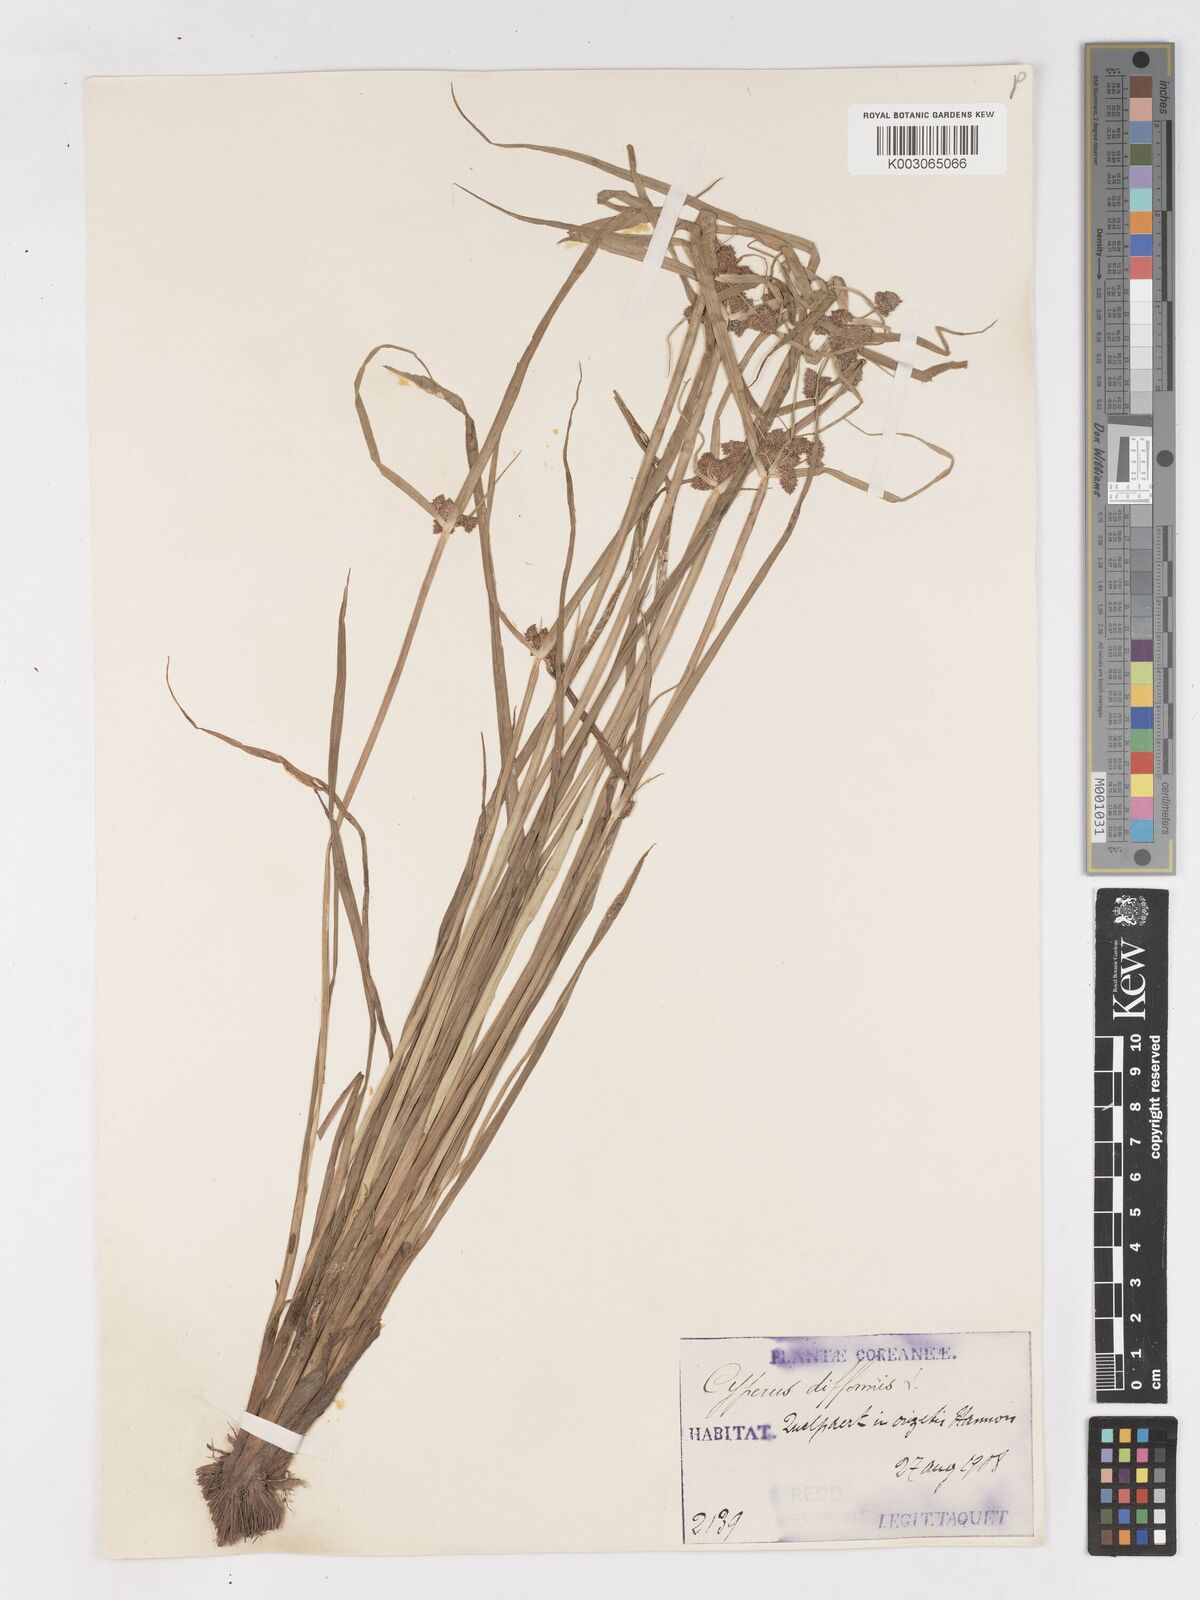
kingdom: Plantae
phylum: Tracheophyta
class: Liliopsida
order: Poales
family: Cyperaceae
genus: Cyperus
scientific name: Cyperus difformis
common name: Variable flatsedge
